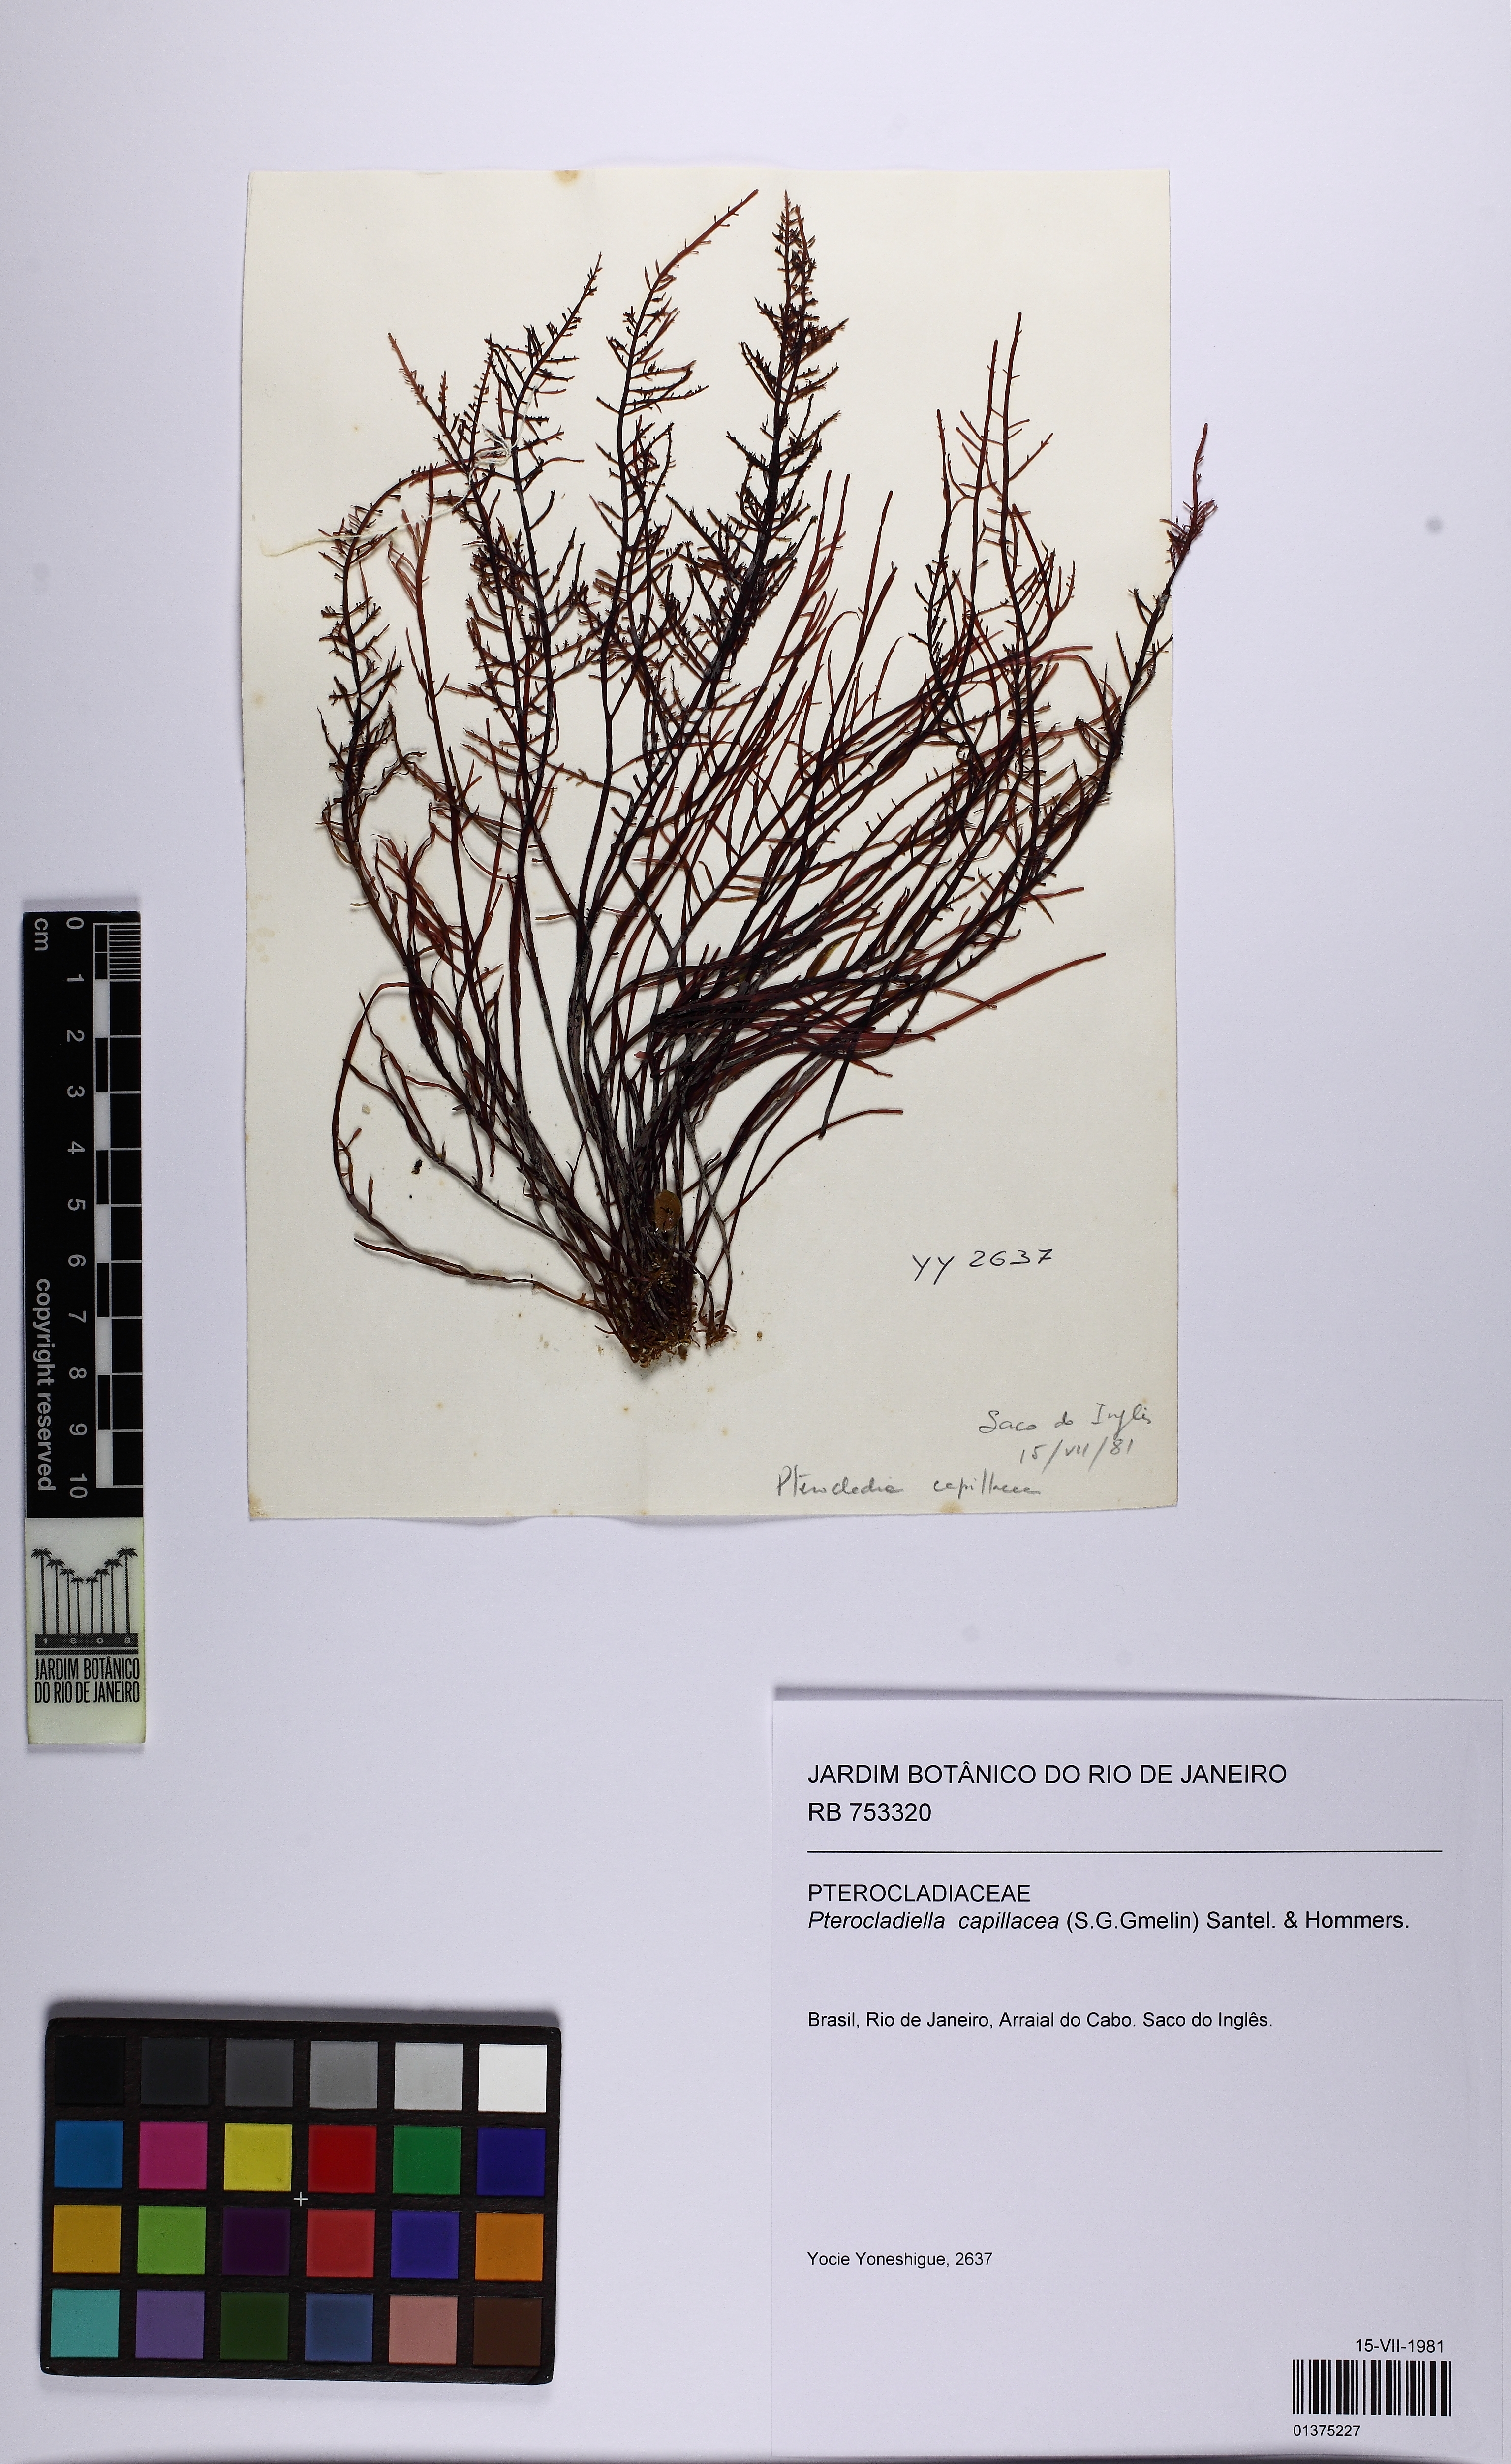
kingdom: Plantae
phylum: Rhodophyta
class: Florideophyceae
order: Gelidiales
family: Pterocladiaceae
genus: Pterocladiella
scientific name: Pterocladiella capillacea
